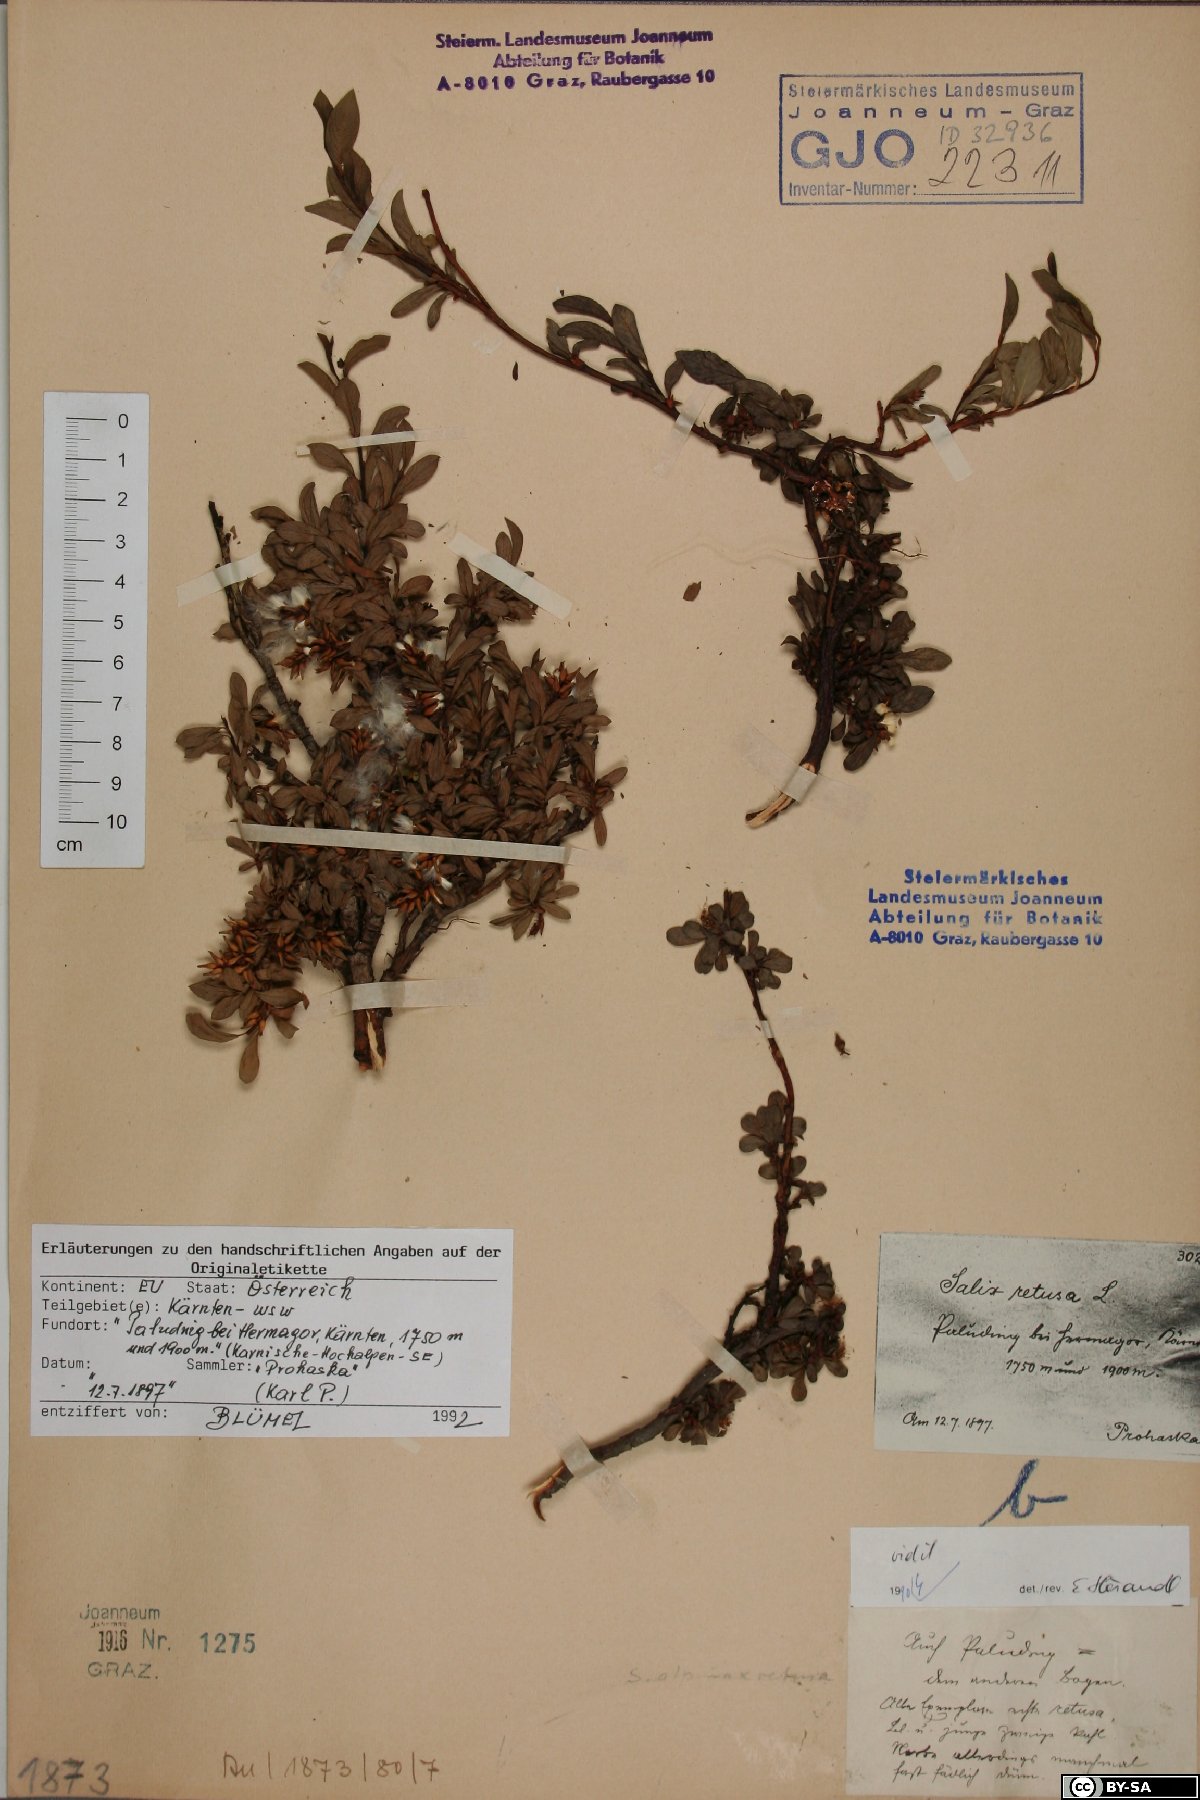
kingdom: Plantae
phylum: Tracheophyta
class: Magnoliopsida
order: Malpighiales
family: Salicaceae
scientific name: Salicaceae
